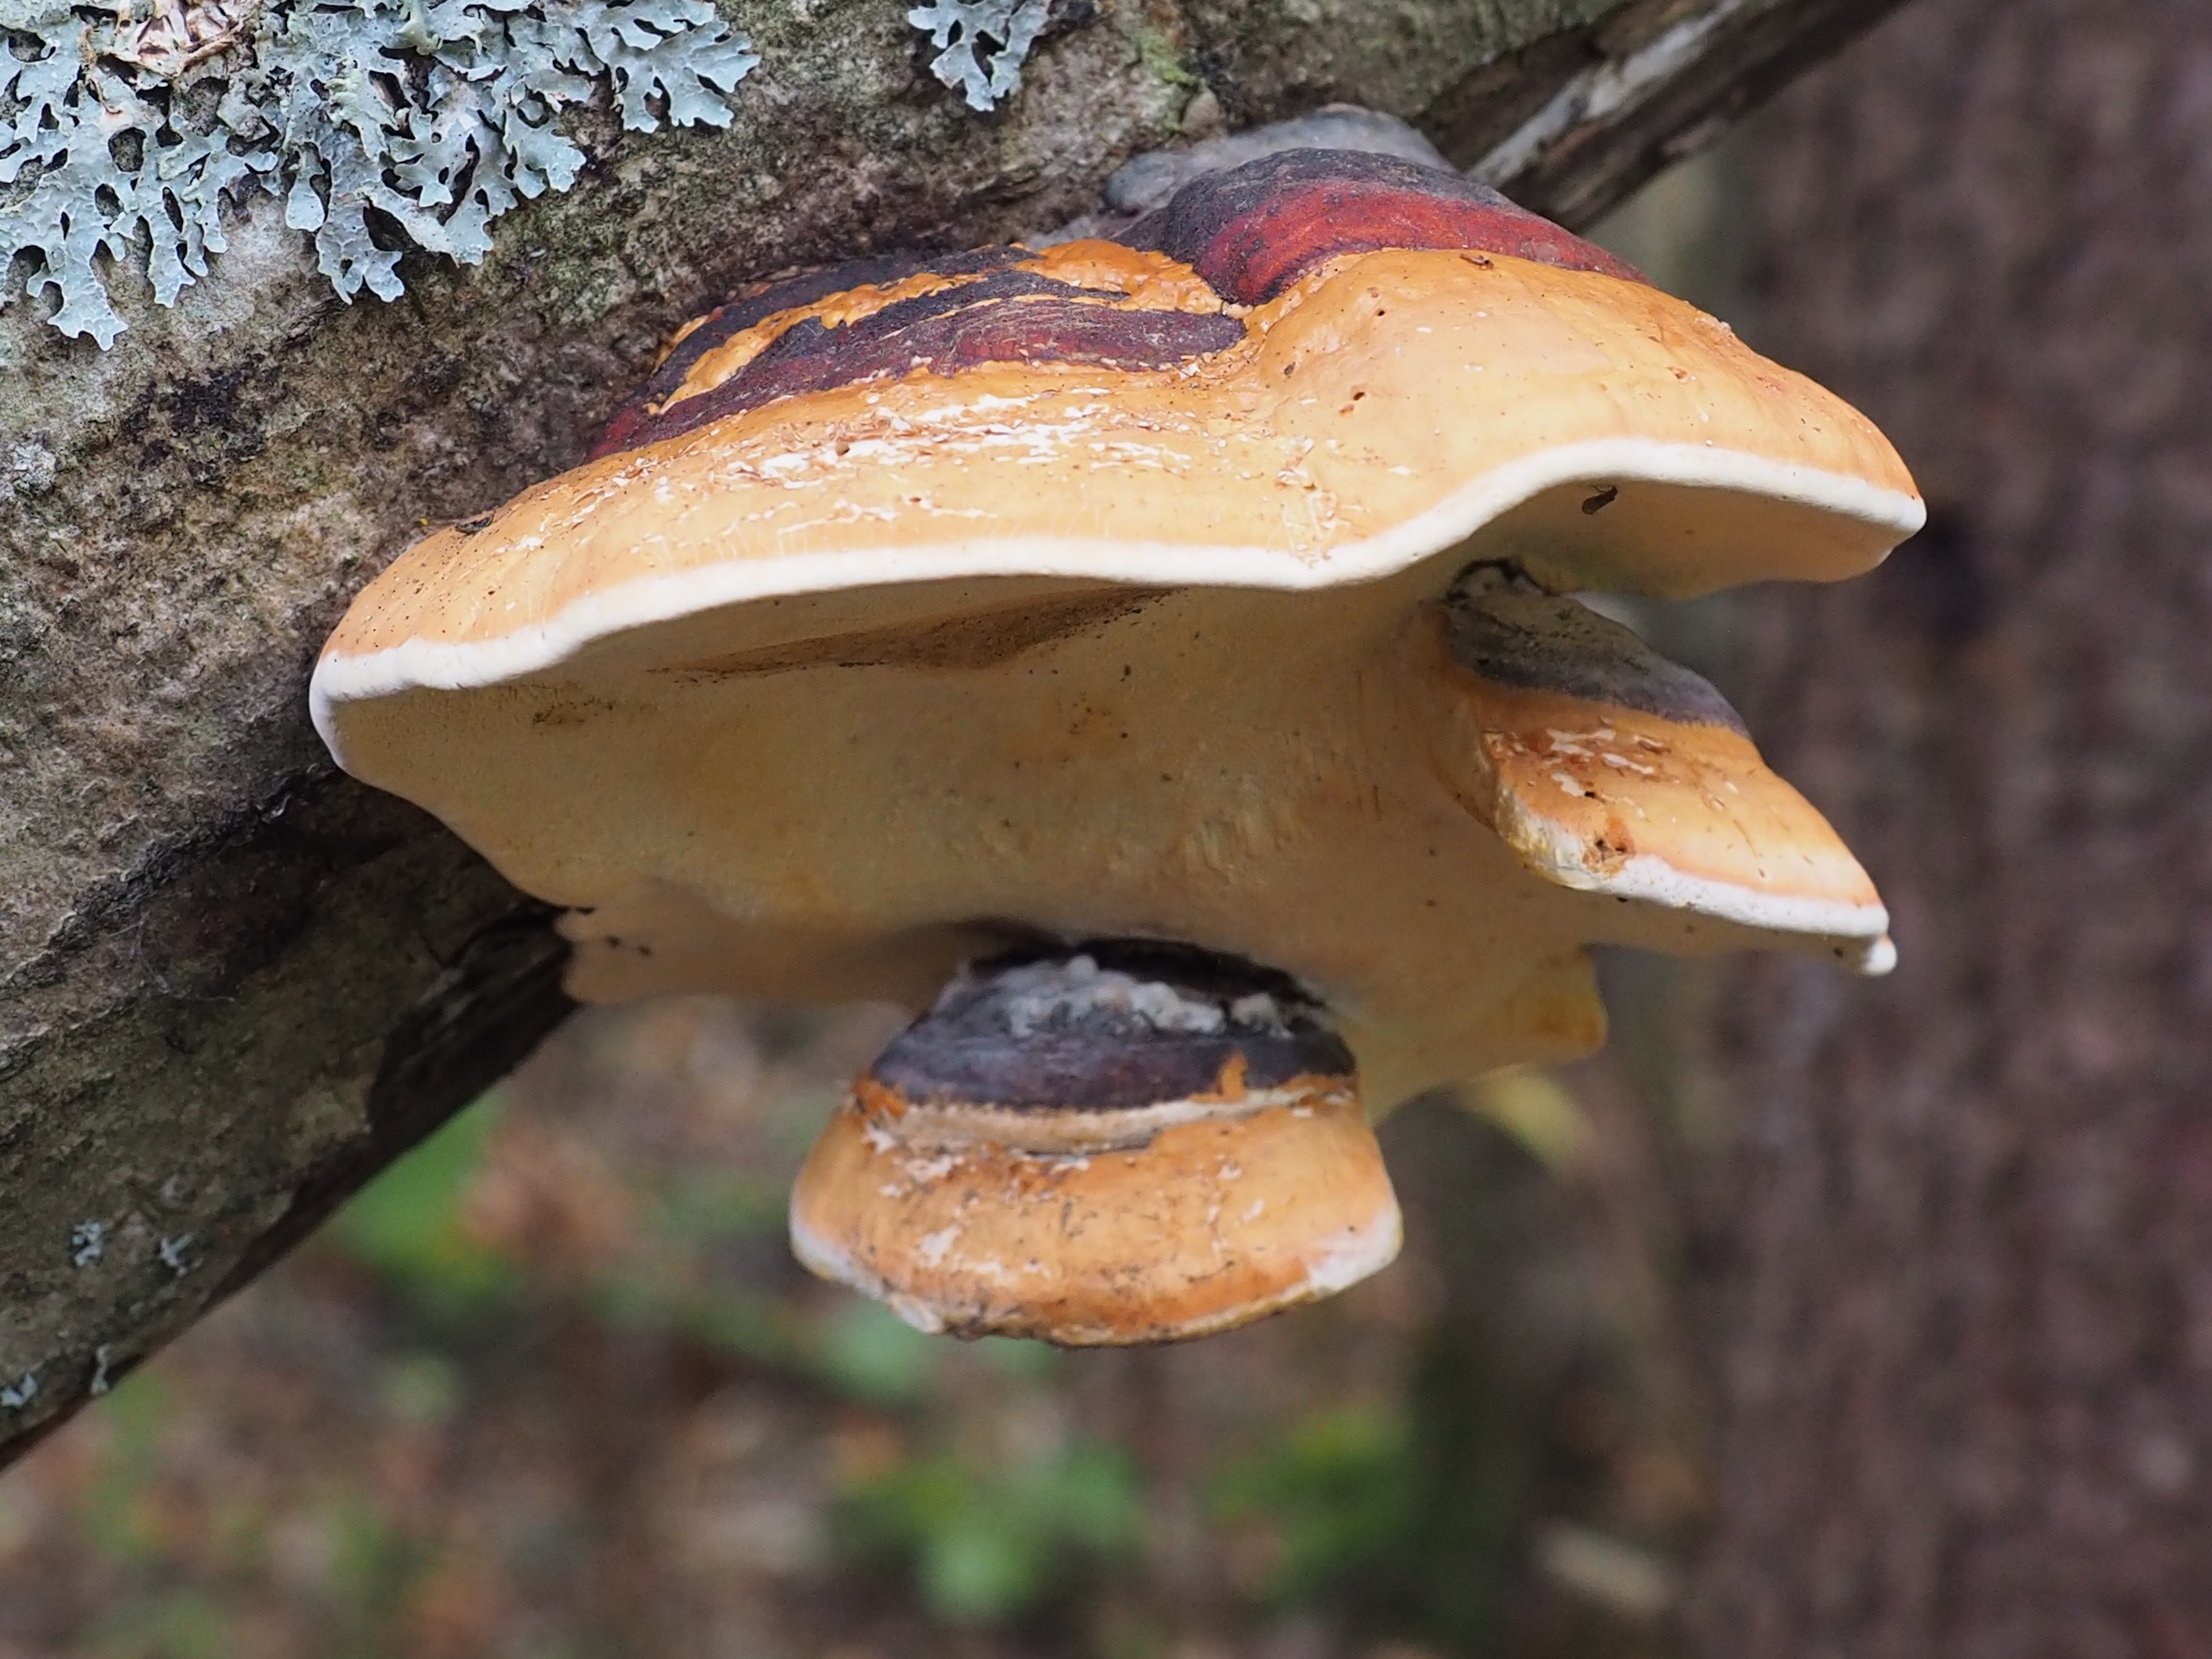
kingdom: Fungi
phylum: Basidiomycota
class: Agaricomycetes
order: Polyporales
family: Fomitopsidaceae
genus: Fomitopsis
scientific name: Fomitopsis pinicola
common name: Red-belted bracket
